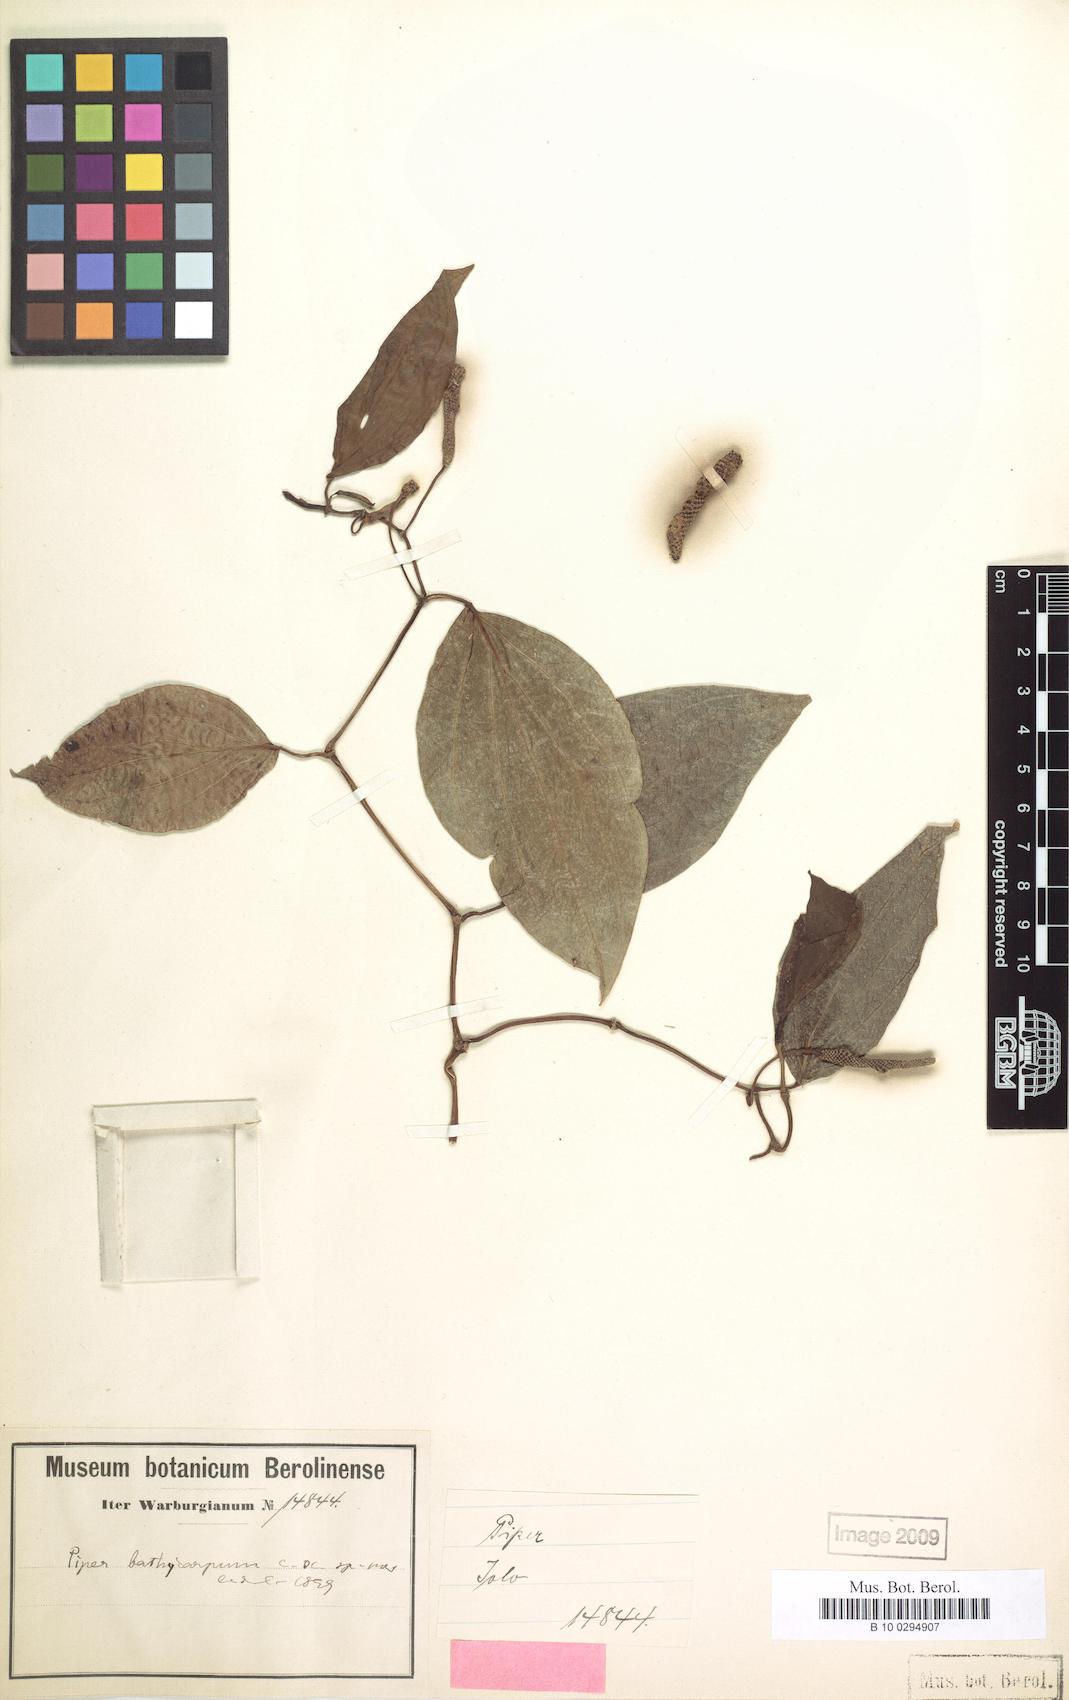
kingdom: Plantae
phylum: Tracheophyta
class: Magnoliopsida
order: Piperales
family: Piperaceae
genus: Piper
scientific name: Piper betle
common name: Betel pepper
